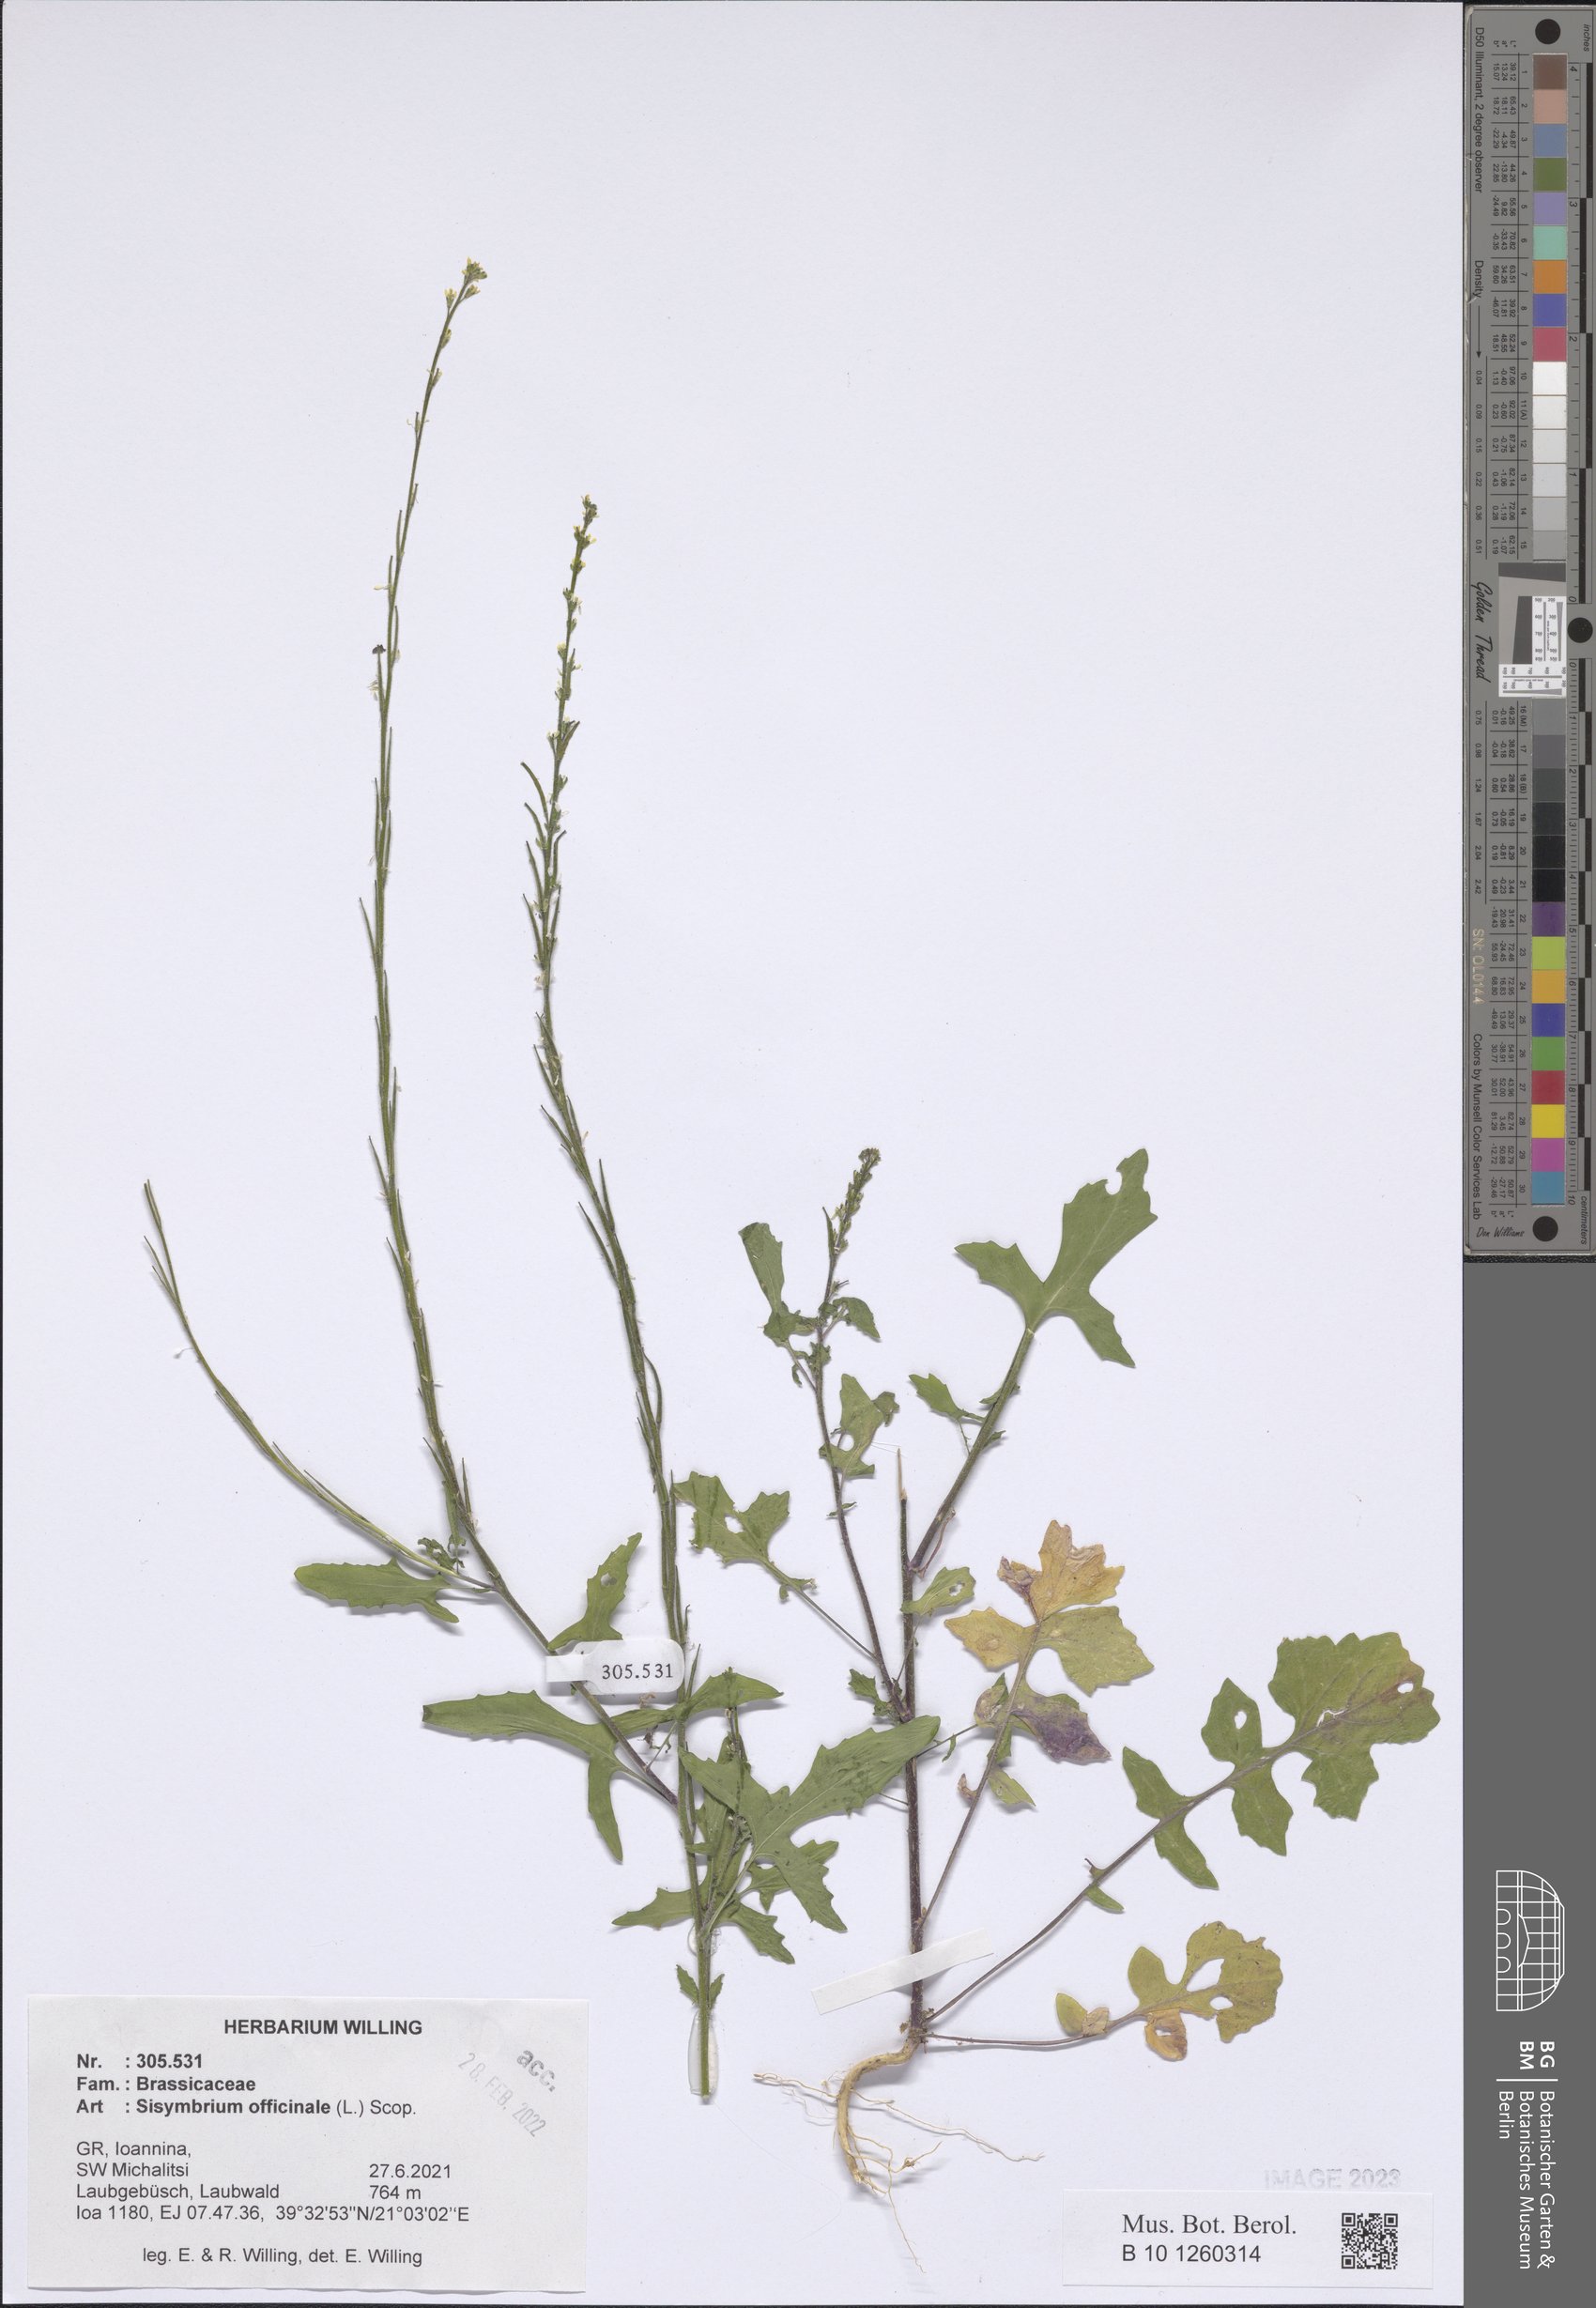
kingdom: Plantae
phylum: Tracheophyta
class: Magnoliopsida
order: Brassicales
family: Brassicaceae
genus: Sisymbrium
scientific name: Sisymbrium officinale
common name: Hedge mustard
